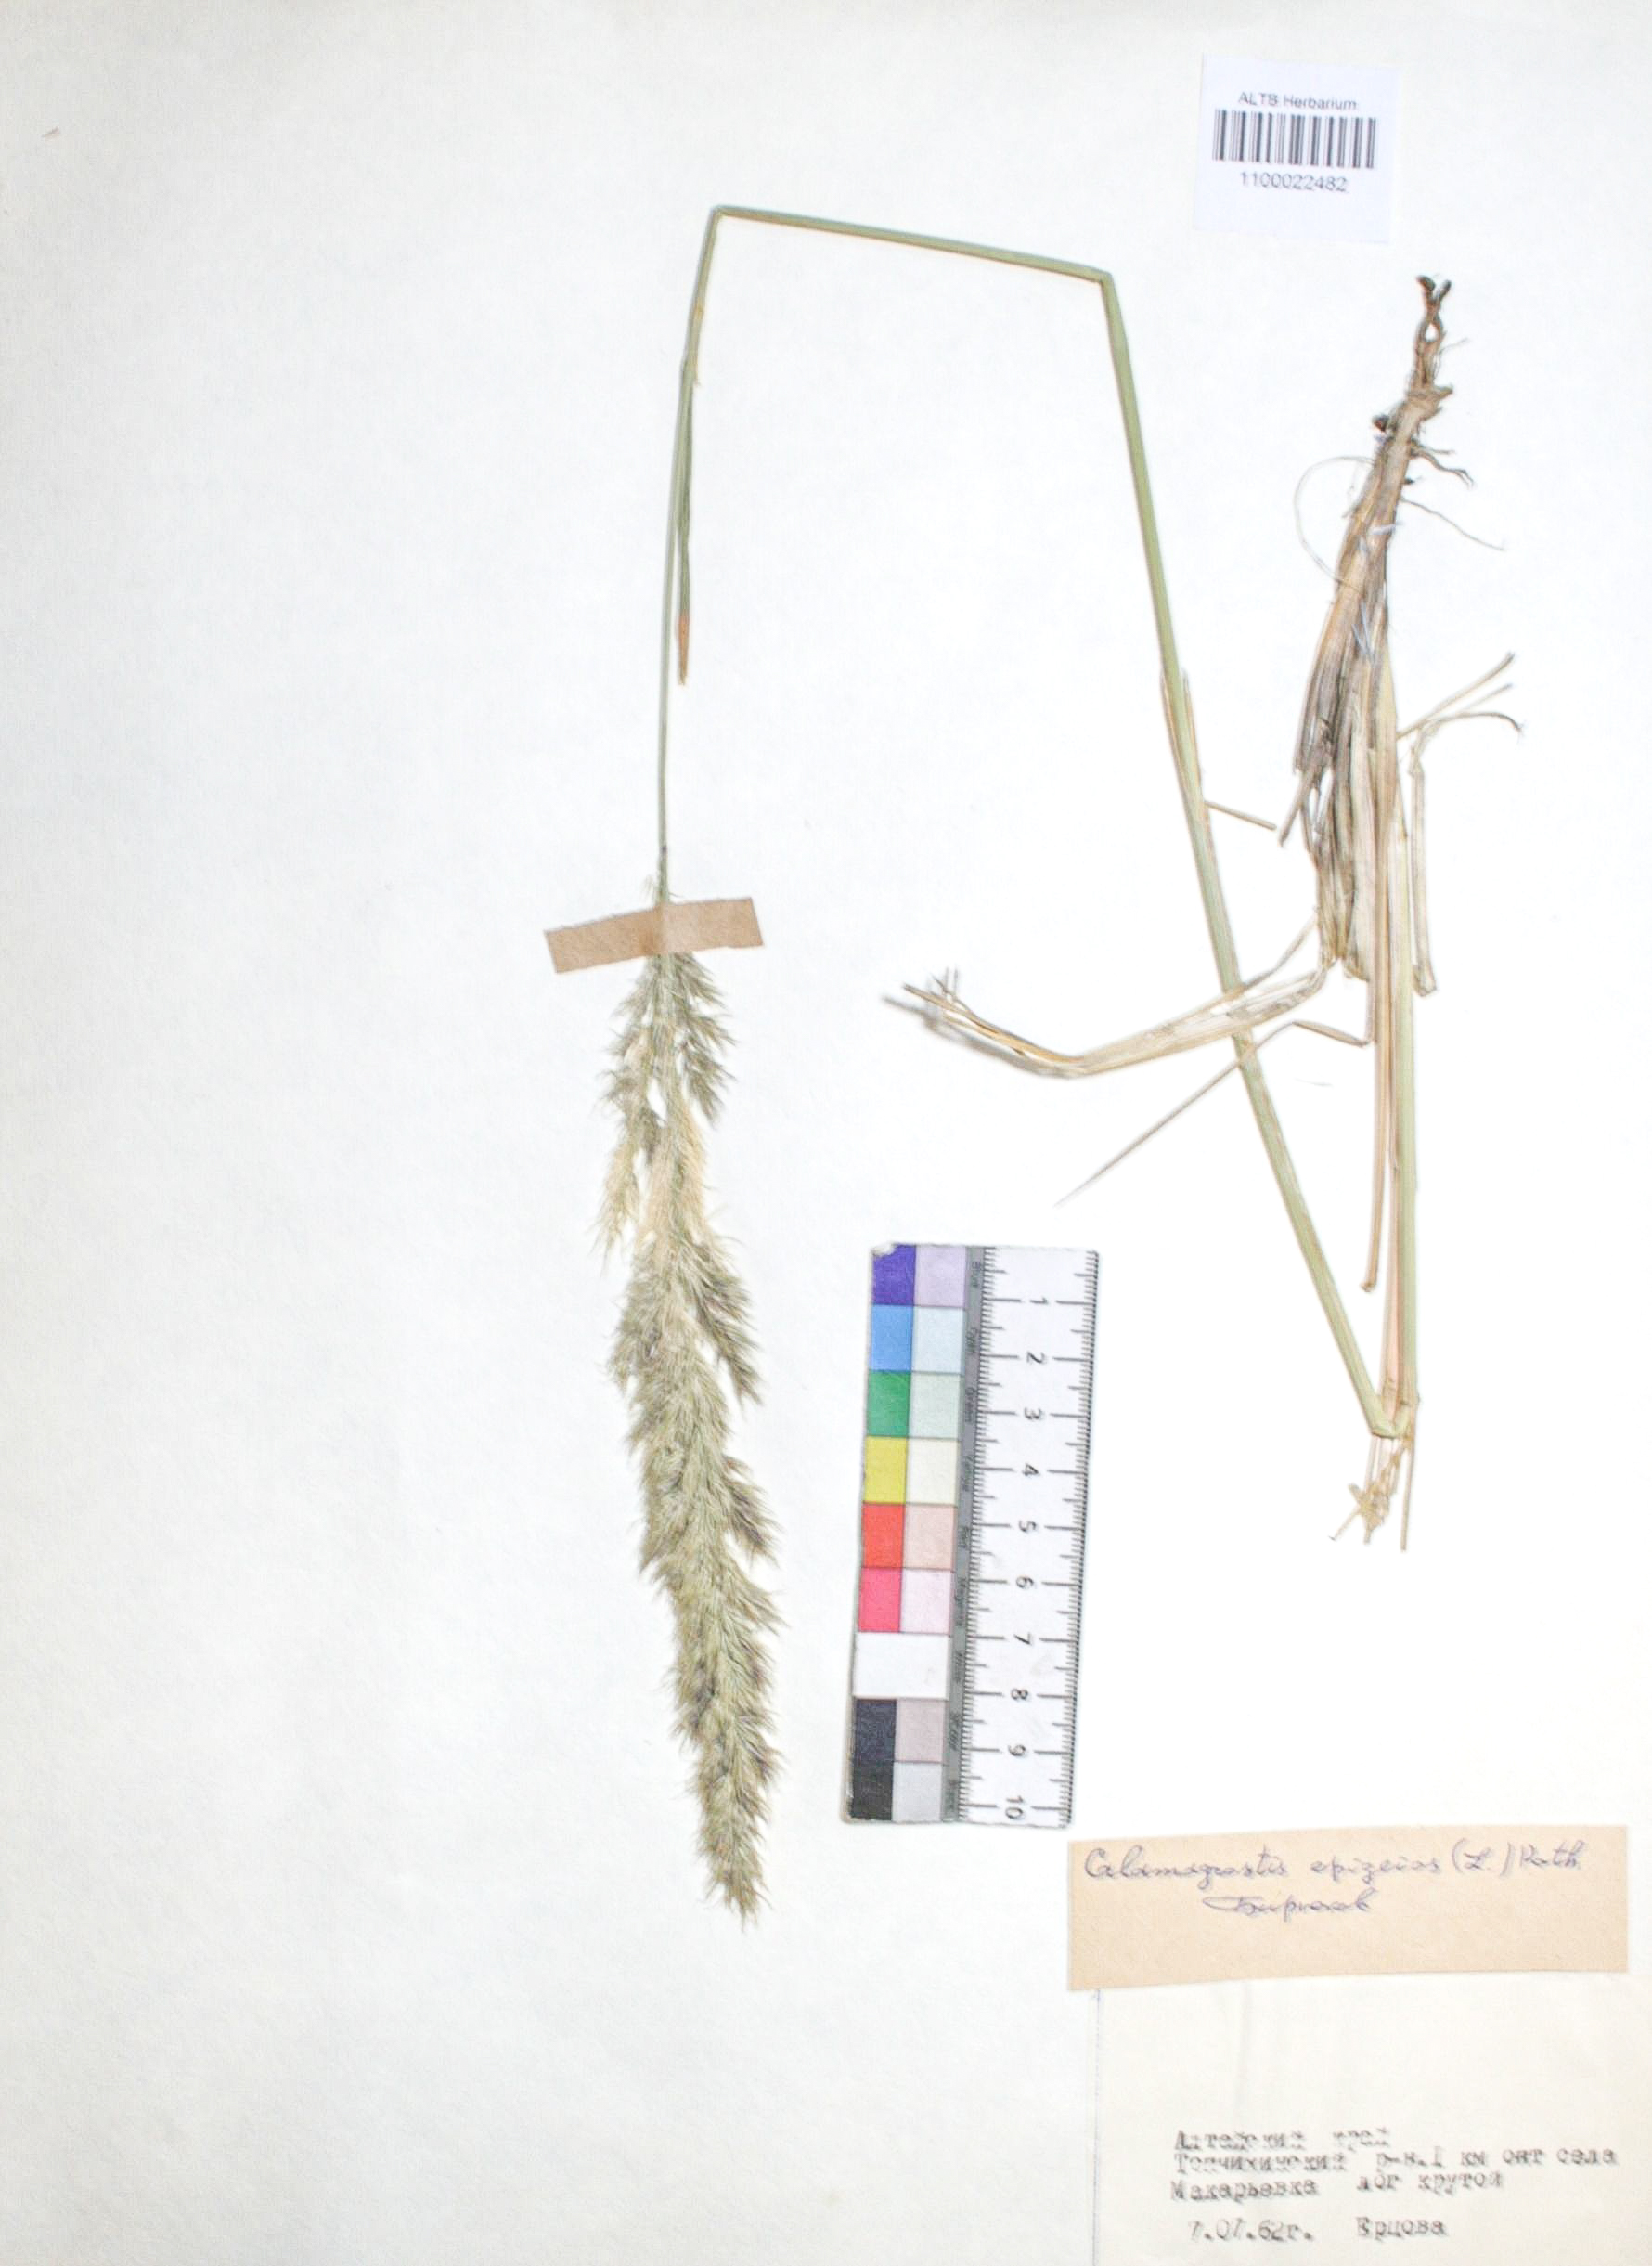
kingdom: Plantae
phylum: Tracheophyta
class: Liliopsida
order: Poales
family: Poaceae
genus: Calamagrostis
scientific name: Calamagrostis epigejos
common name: Wood small-reed
